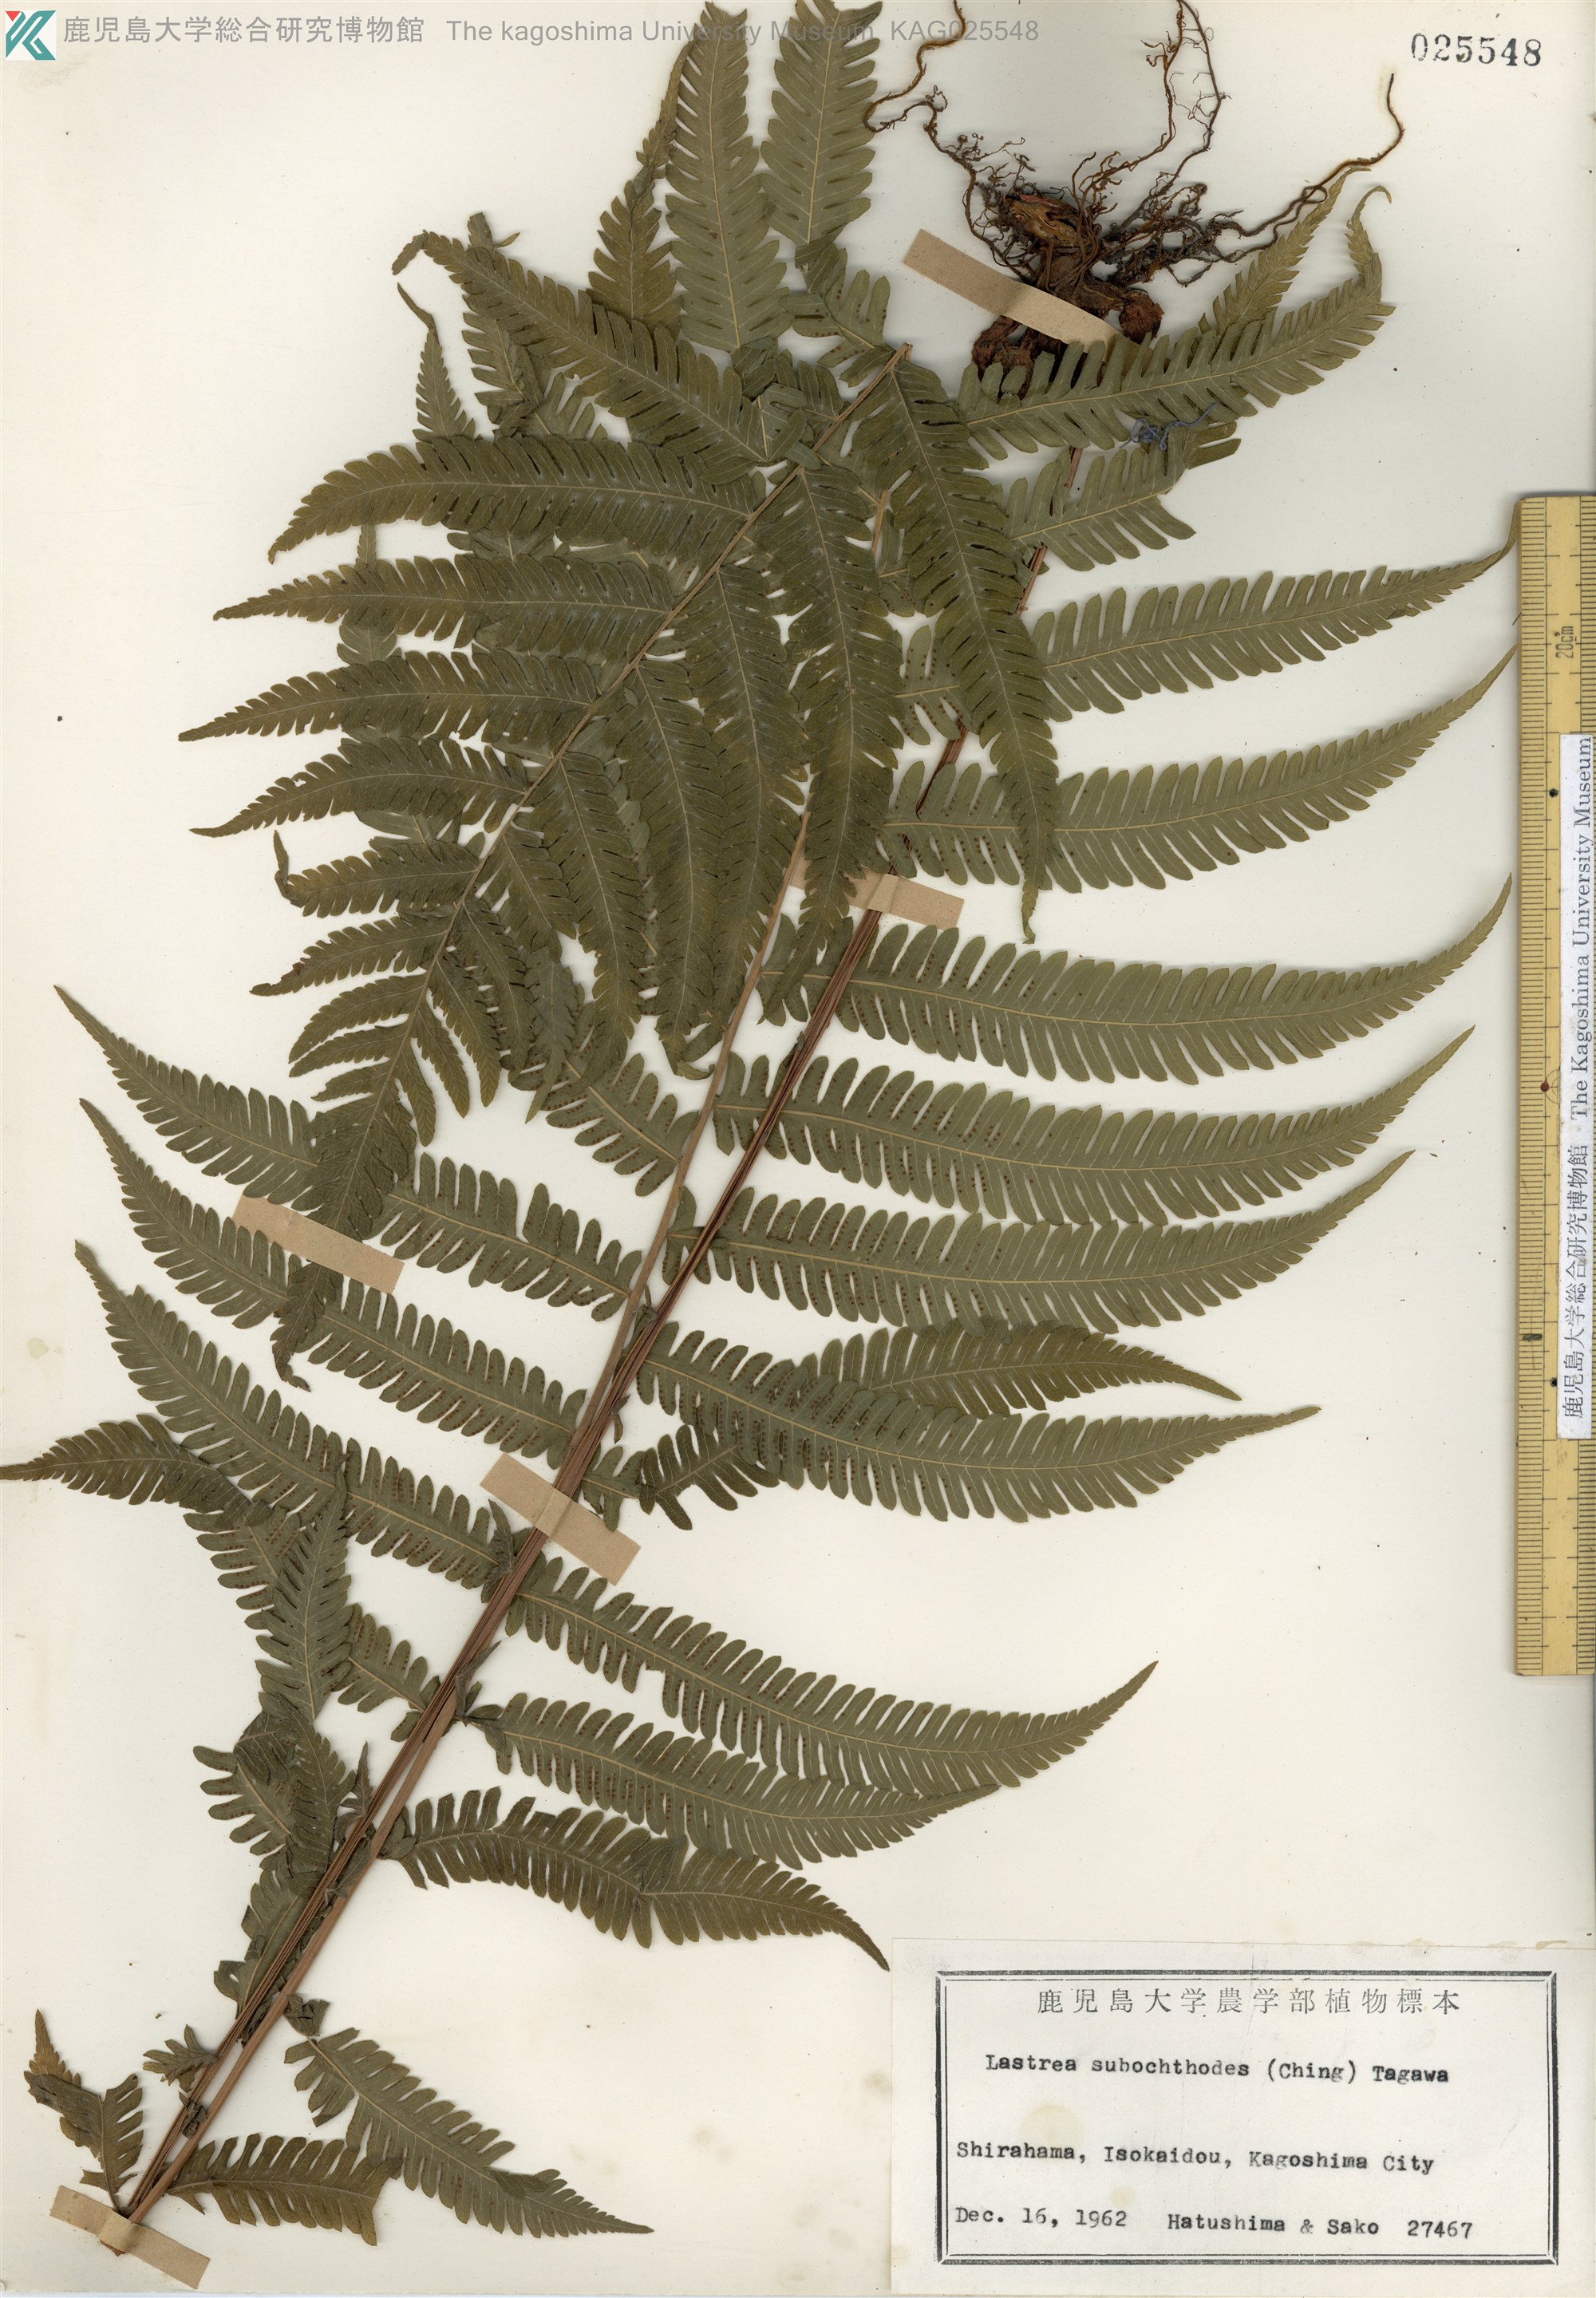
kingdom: Plantae
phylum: Tracheophyta
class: Polypodiopsida
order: Polypodiales
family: Thelypteridaceae
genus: Pseudocyclosorus
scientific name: Pseudocyclosorus esquirolii
